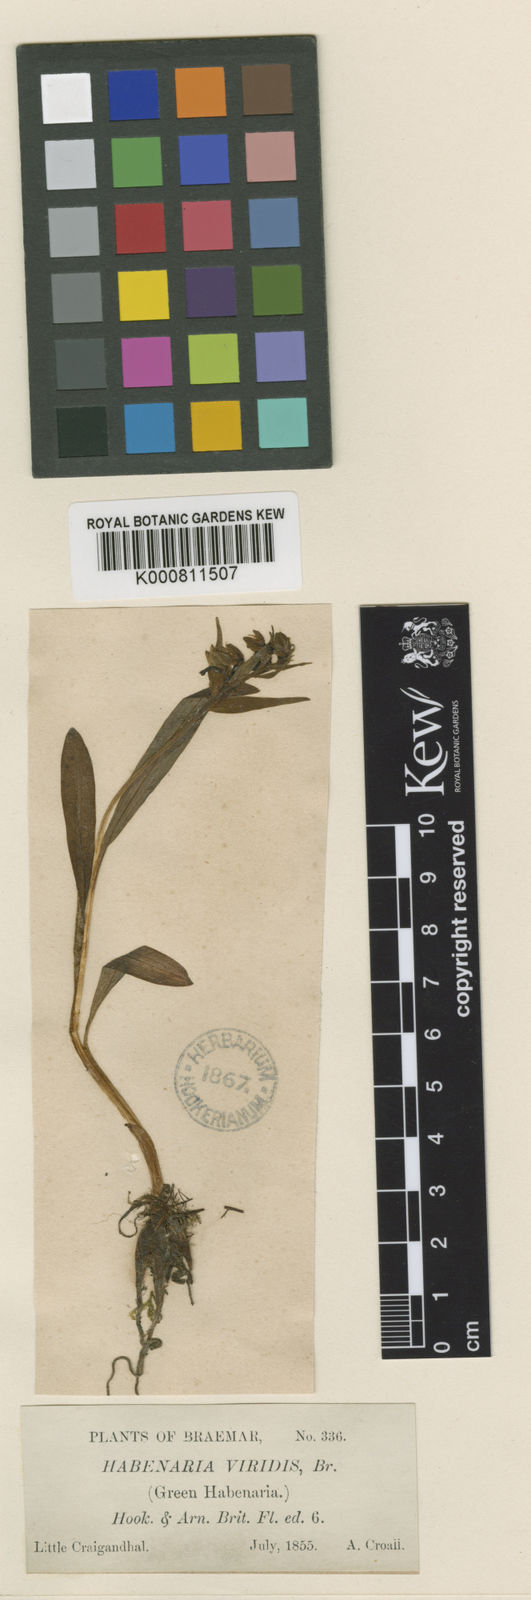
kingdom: Plantae
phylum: Tracheophyta
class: Liliopsida
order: Asparagales
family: Orchidaceae
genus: Dactylorhiza
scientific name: Dactylorhiza viridis
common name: Longbract frog orchid
